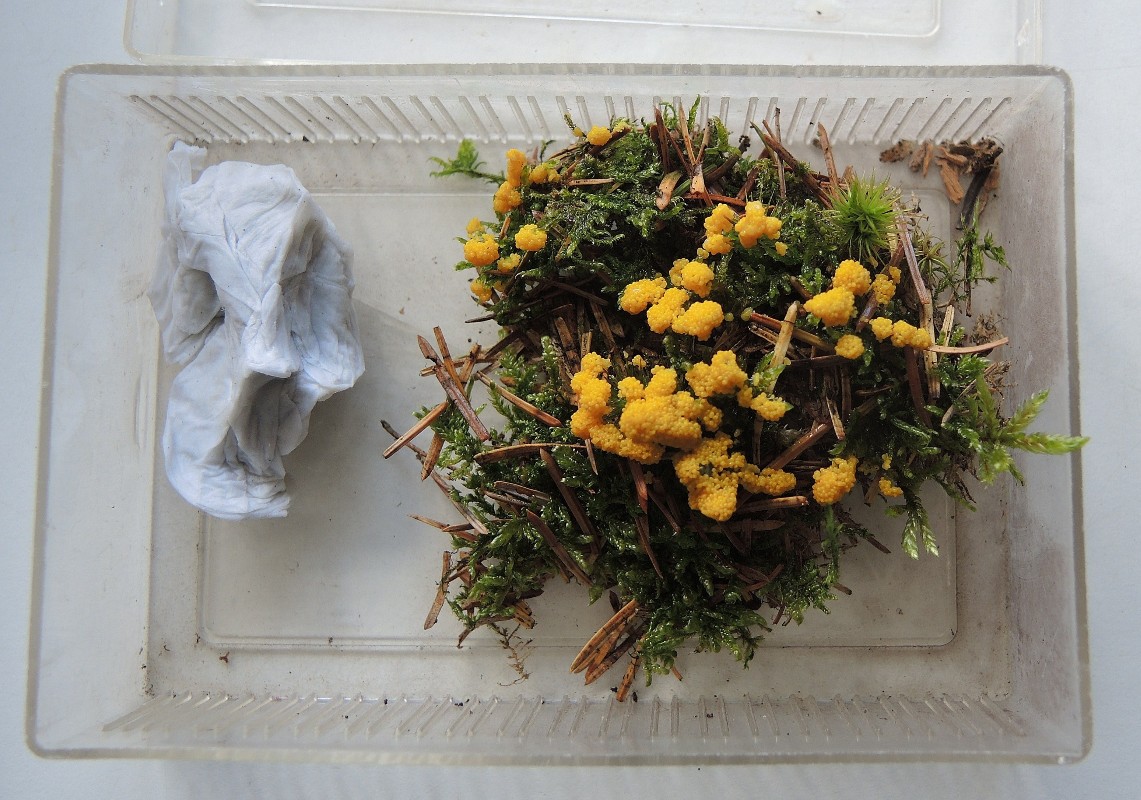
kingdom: Protozoa
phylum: Mycetozoa
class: Myxomycetes
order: Physarales
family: Physaraceae
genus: Physarum
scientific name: Physarum virescens
